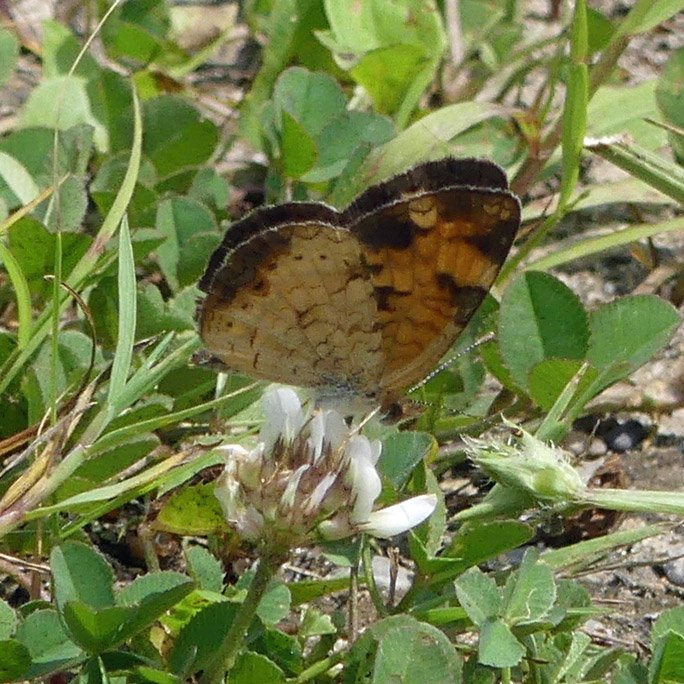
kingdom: Animalia
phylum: Arthropoda
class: Insecta
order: Lepidoptera
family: Nymphalidae
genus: Phyciodes
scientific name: Phyciodes tharos
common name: Northern Crescent
